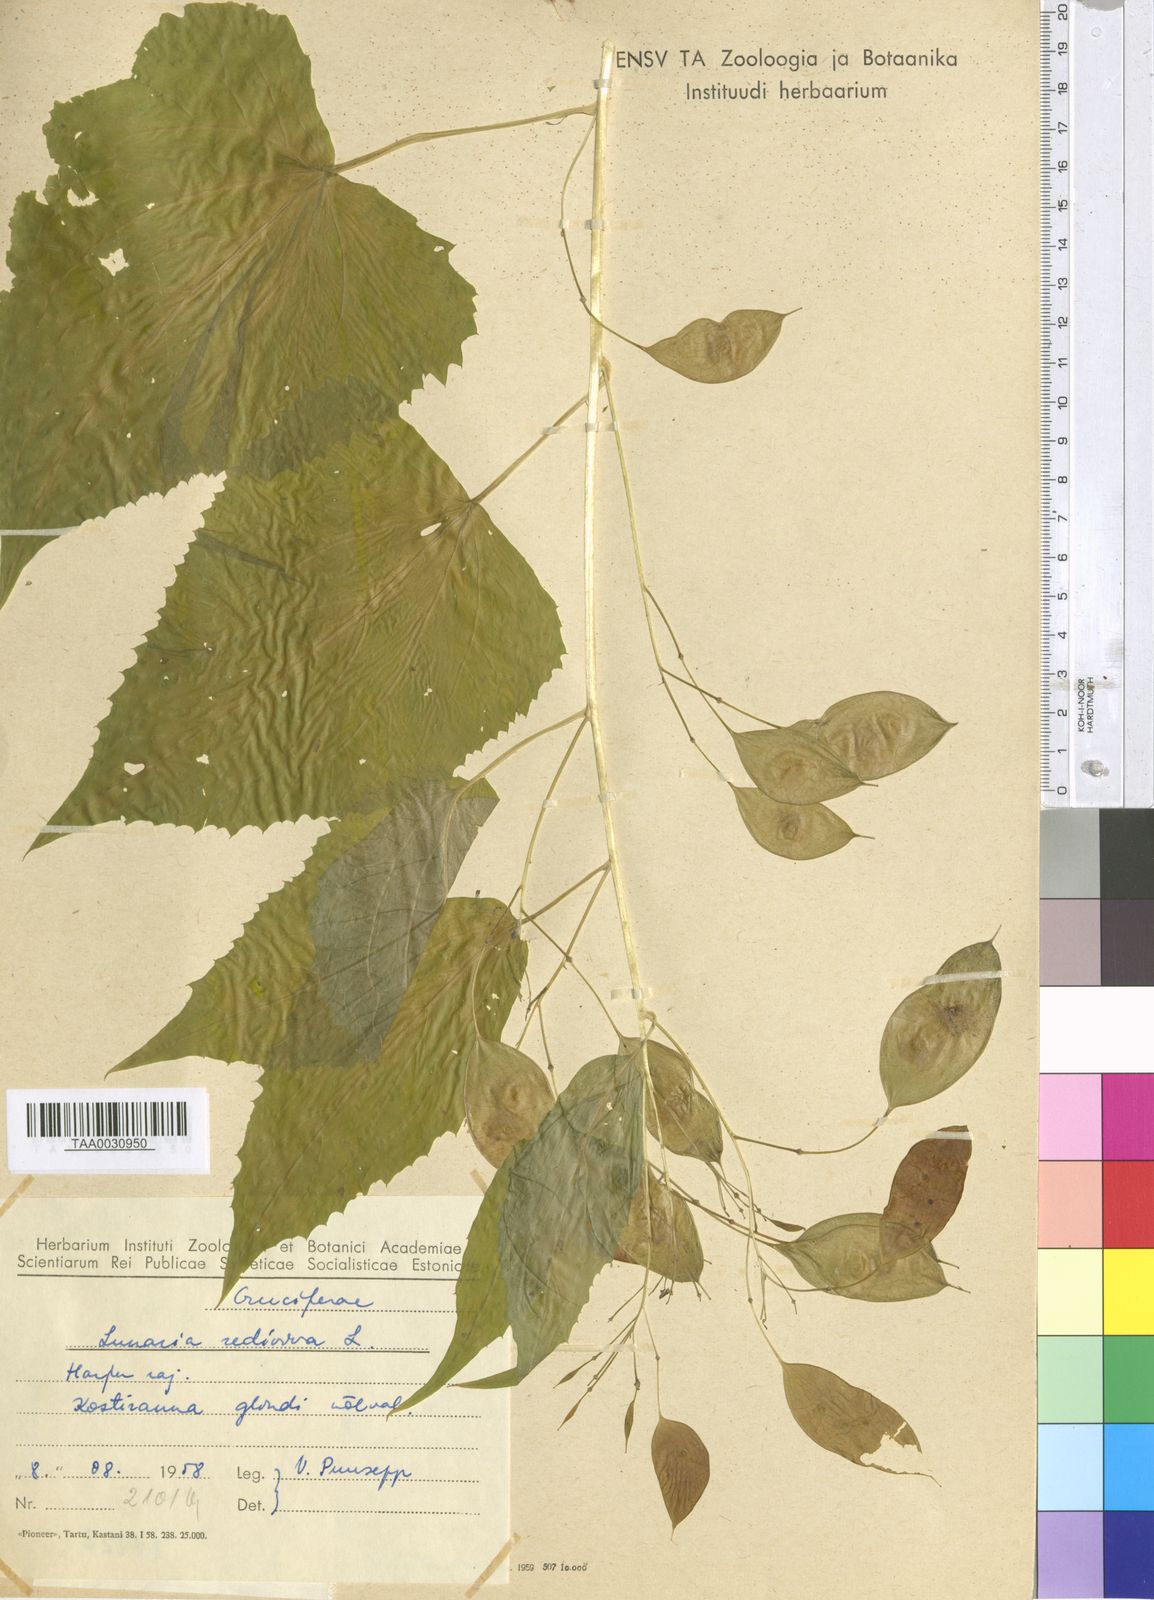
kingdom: Plantae
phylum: Tracheophyta
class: Magnoliopsida
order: Brassicales
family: Brassicaceae
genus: Lunaria
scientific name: Lunaria rediviva
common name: Perennial honesty
